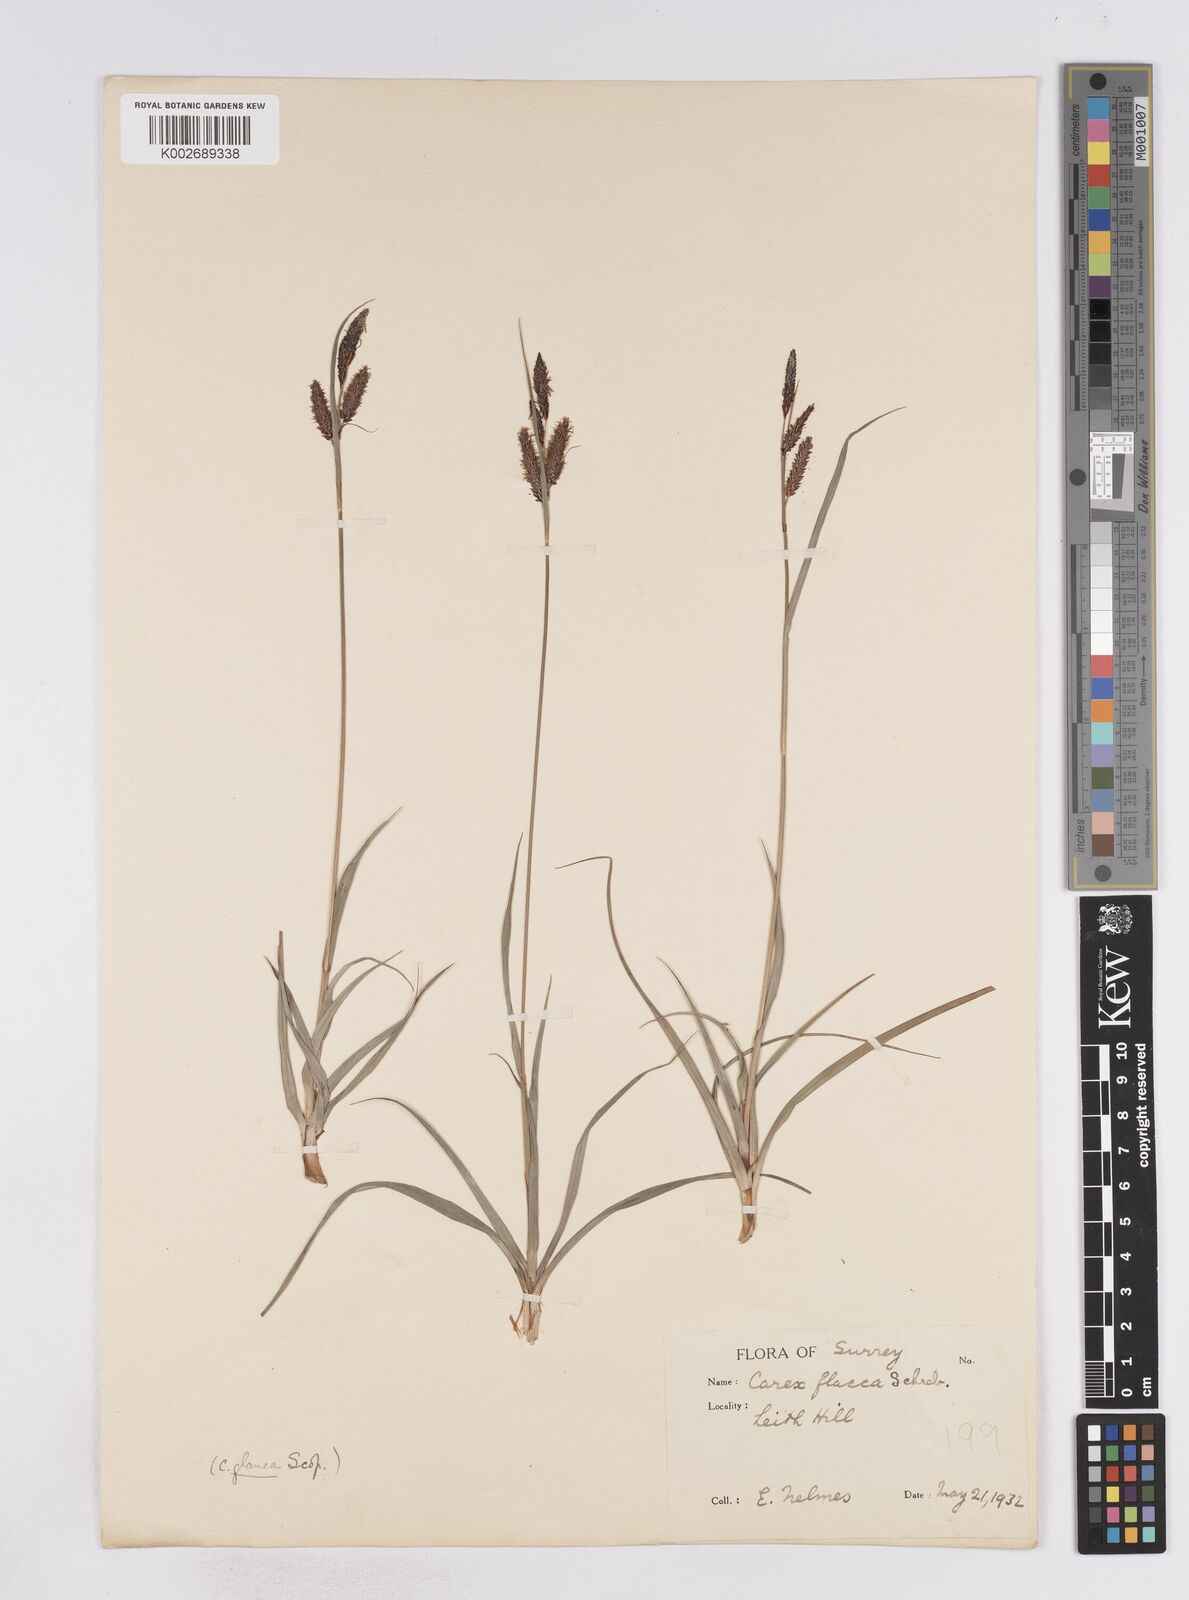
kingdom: Plantae
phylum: Tracheophyta
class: Liliopsida
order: Poales
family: Cyperaceae
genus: Carex
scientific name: Carex flacca
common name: Glaucous sedge
